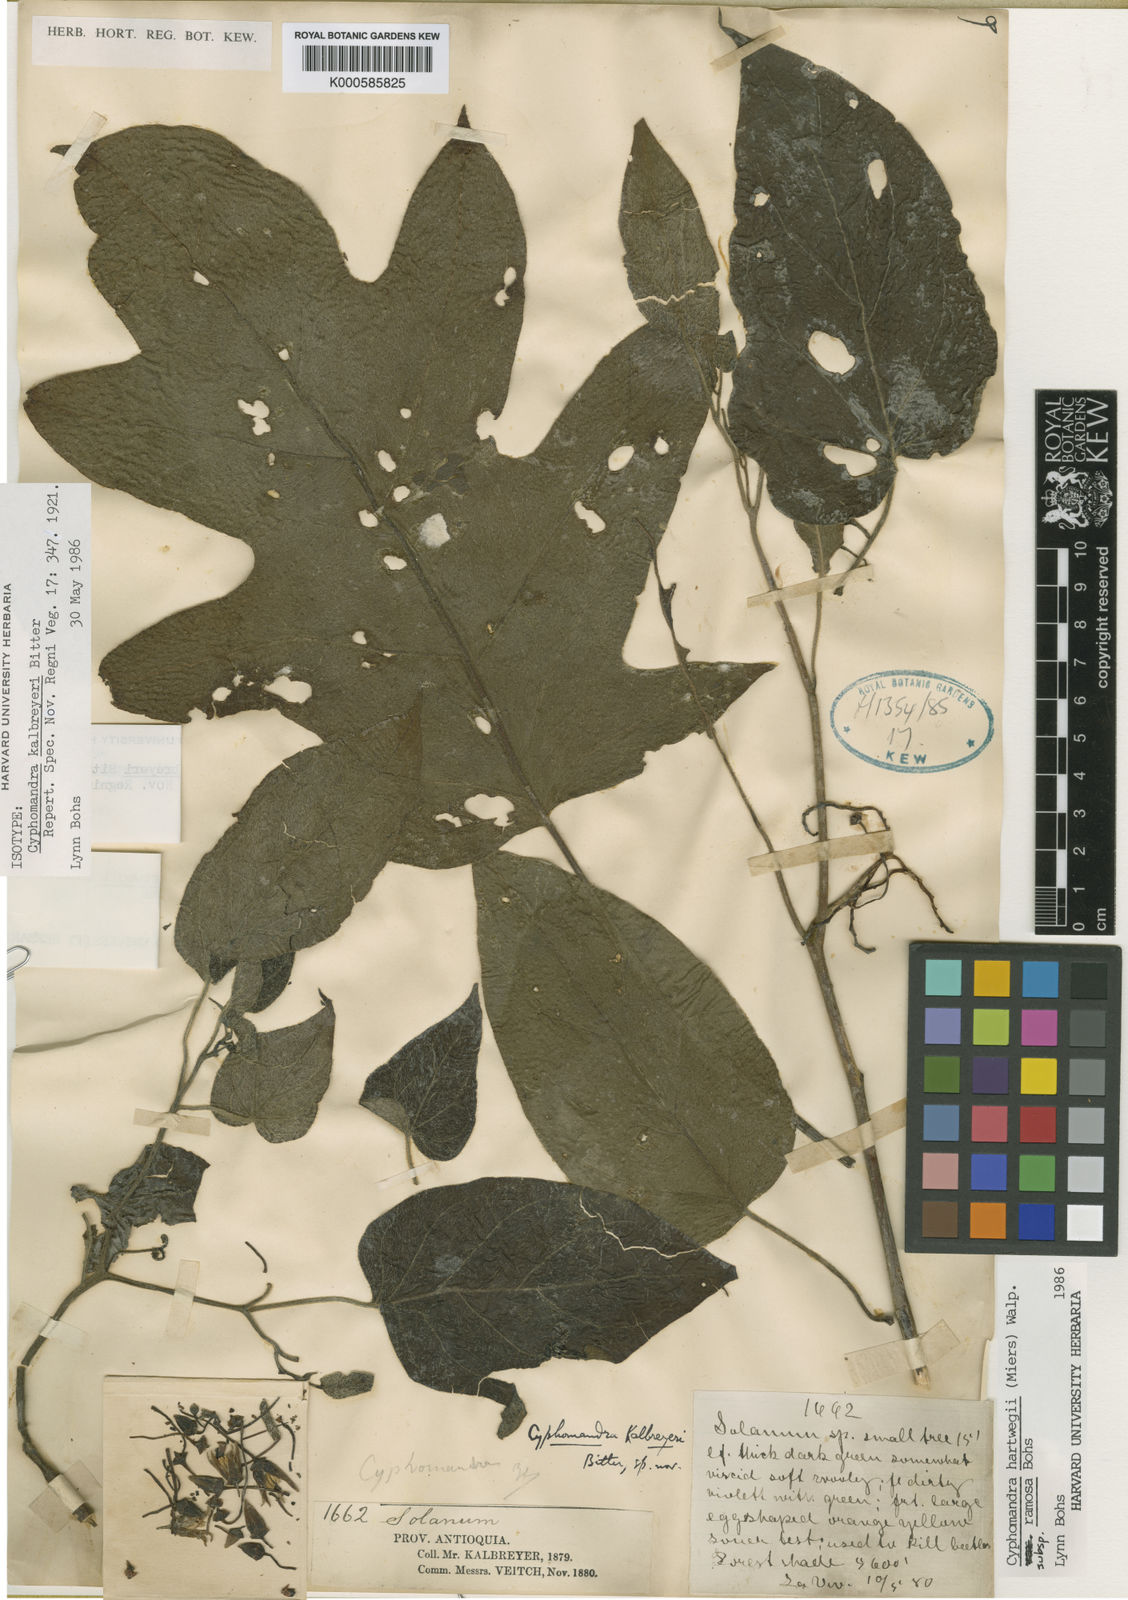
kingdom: Plantae
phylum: Tracheophyta
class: Magnoliopsida
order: Solanales
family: Solanaceae
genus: Solanum
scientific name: Solanum splendens
